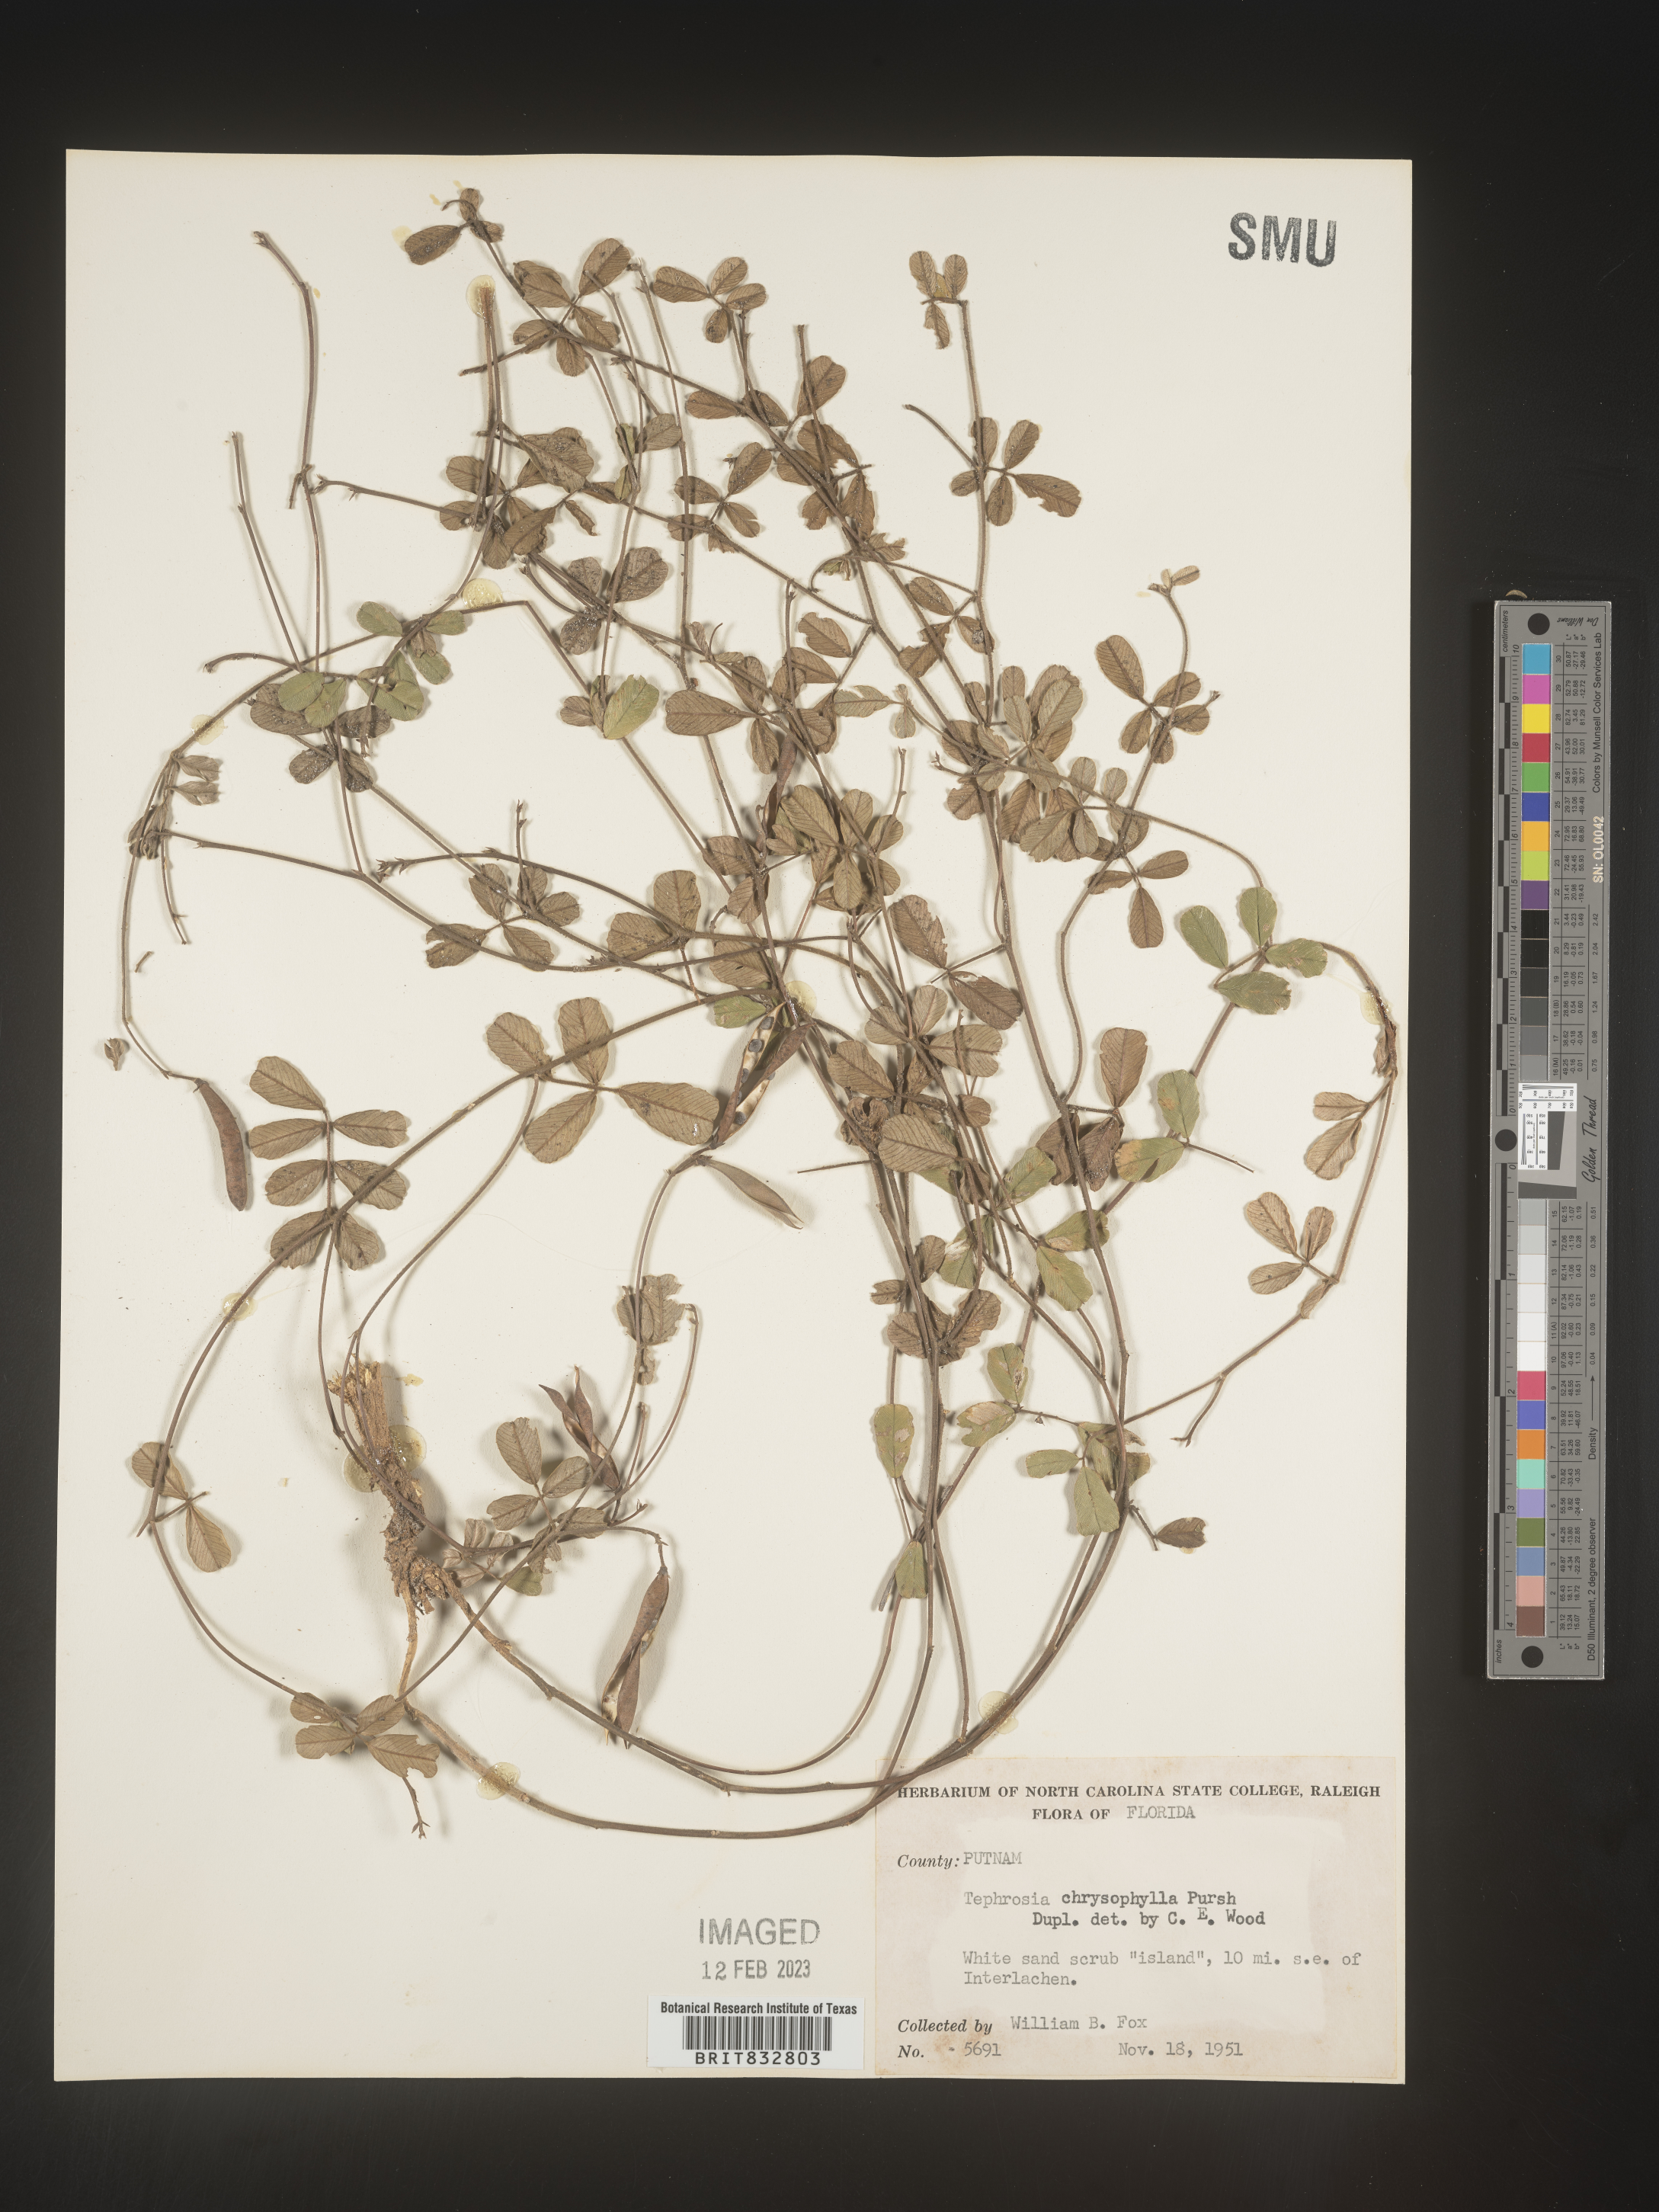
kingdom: Plantae
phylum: Tracheophyta
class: Magnoliopsida
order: Fabales
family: Fabaceae
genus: Tephrosia
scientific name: Tephrosia chrysophylla
